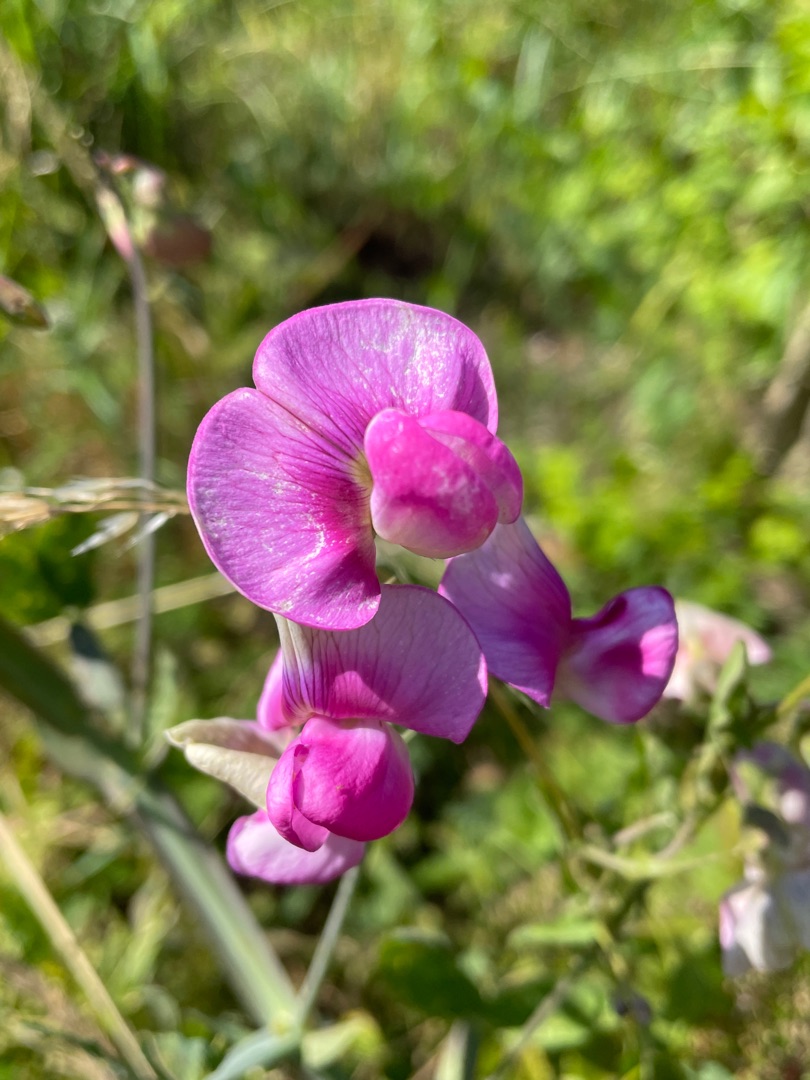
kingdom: Plantae
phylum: Tracheophyta
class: Magnoliopsida
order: Fabales
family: Fabaceae
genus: Lathyrus
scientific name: Lathyrus latifolius
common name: Flerårig ærteblomst
